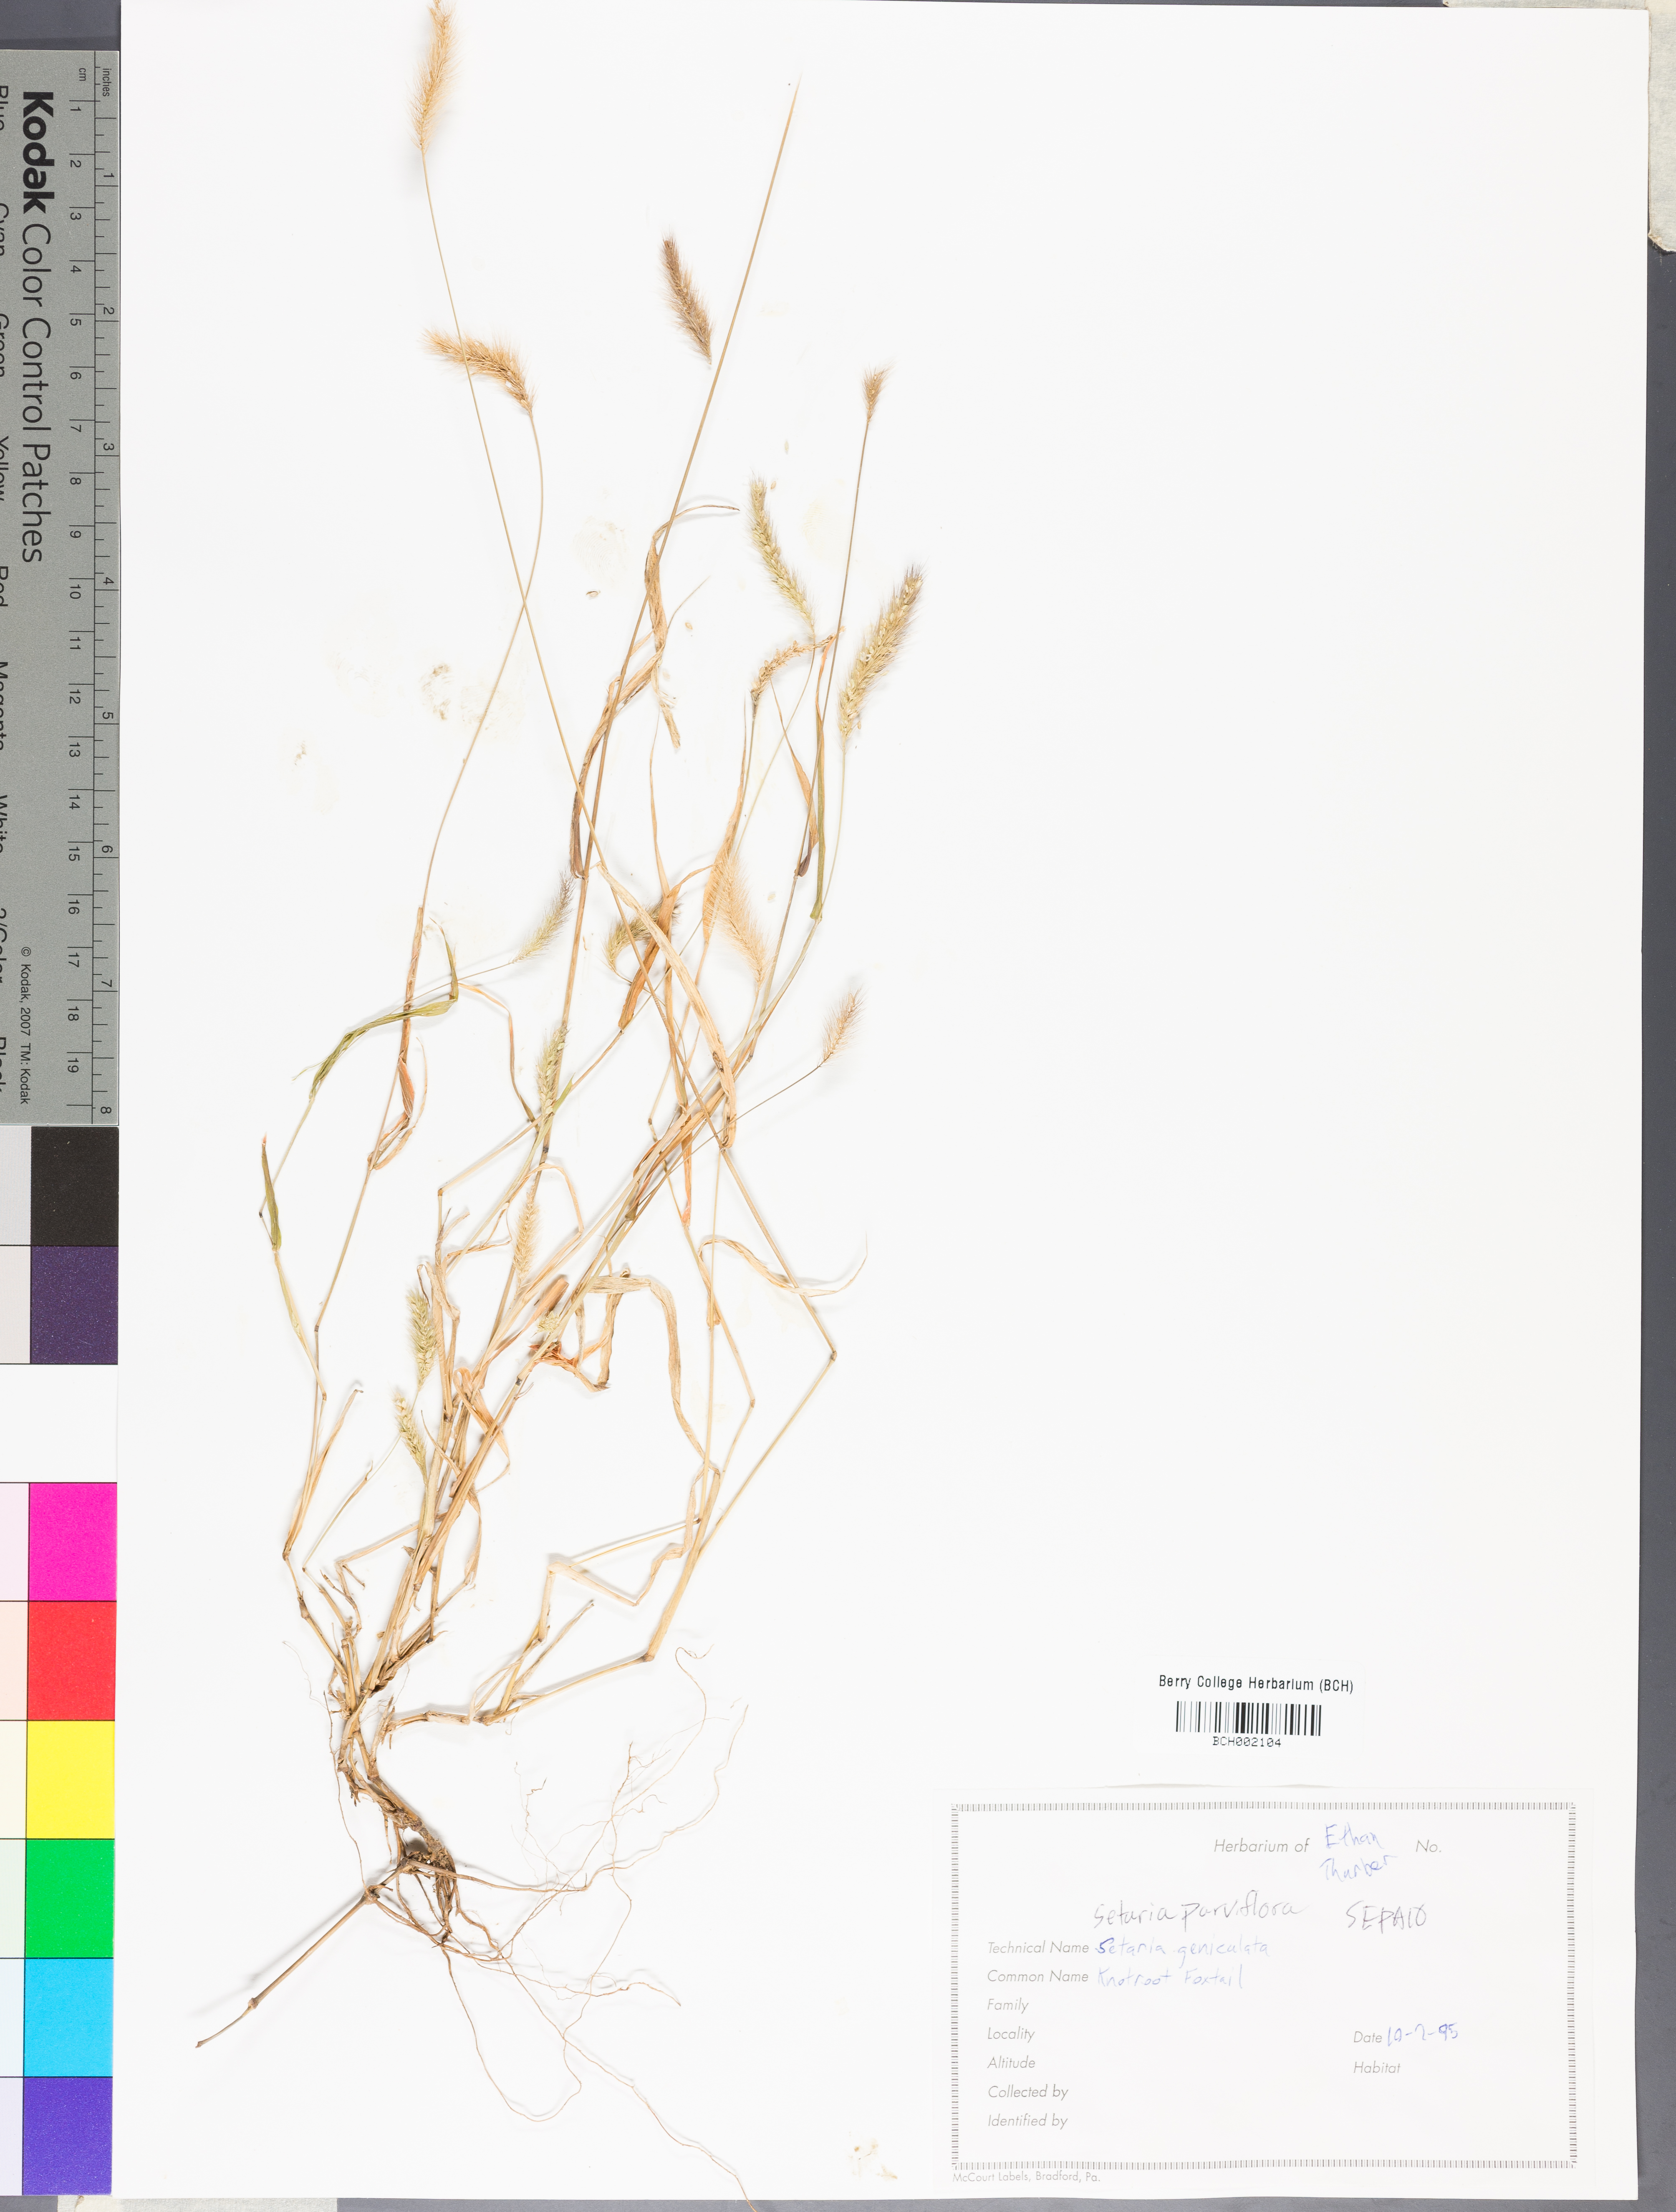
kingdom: Plantae
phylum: Tracheophyta
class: Liliopsida
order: Poales
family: Poaceae
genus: Setaria
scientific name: Setaria parviflora
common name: Knotroot bristle-grass
